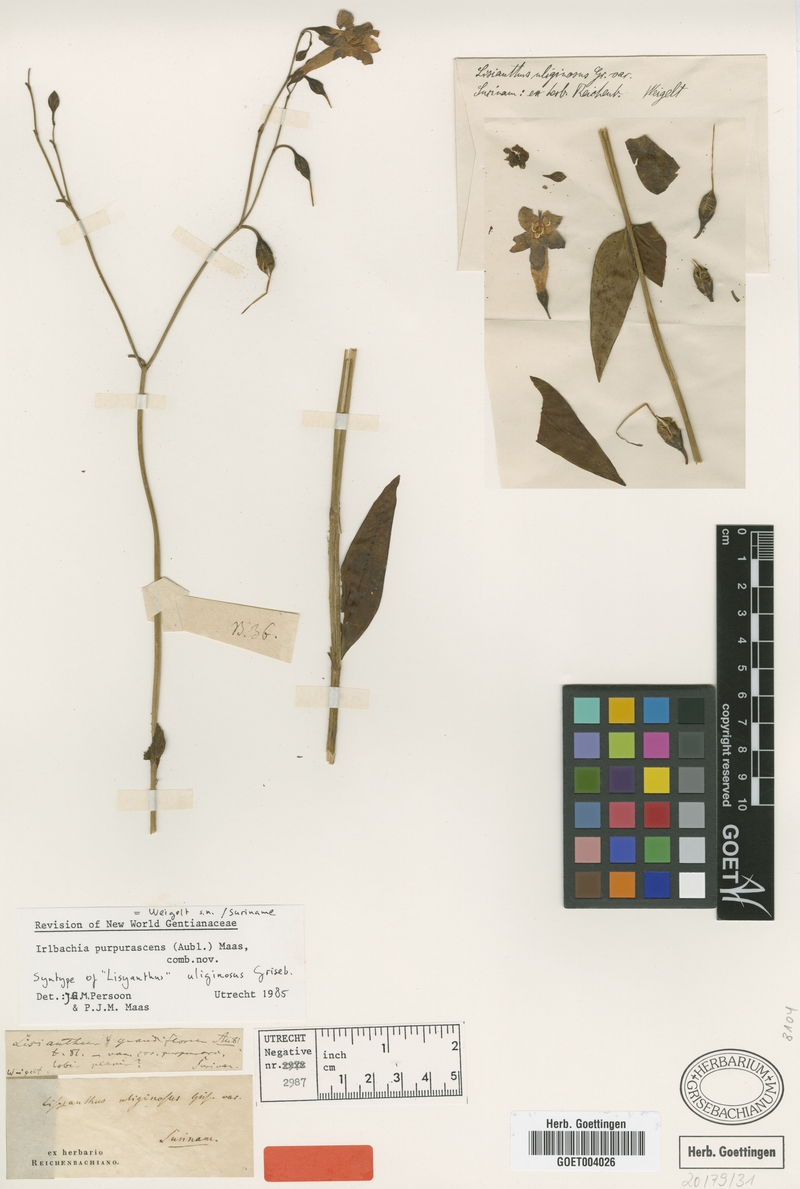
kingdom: Plantae
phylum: Tracheophyta
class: Magnoliopsida
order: Gentianales
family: Gentianaceae
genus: Chelonanthus
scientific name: Chelonanthus purpurascens
